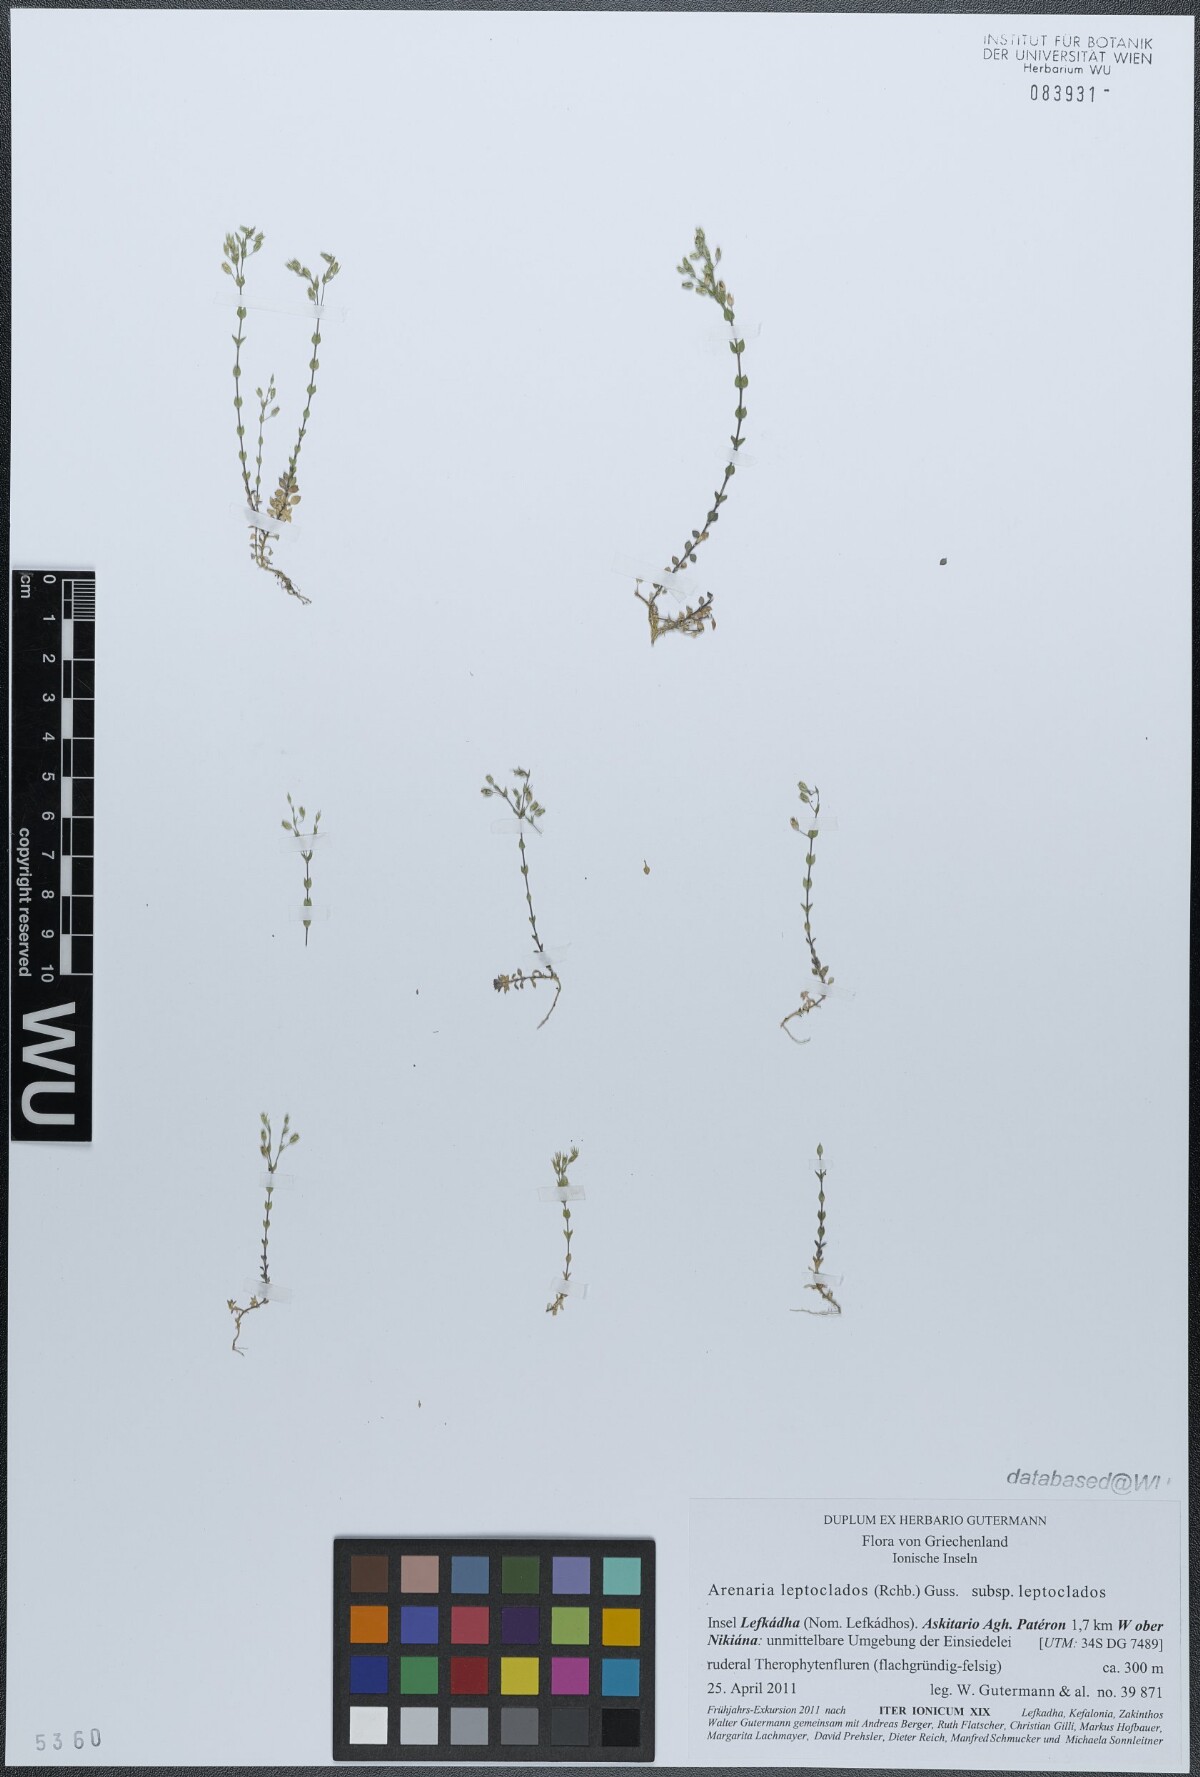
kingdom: Plantae
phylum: Tracheophyta
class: Magnoliopsida
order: Caryophyllales
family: Caryophyllaceae
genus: Arenaria
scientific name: Arenaria leptoclados
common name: Thyme-leaved sandwort
